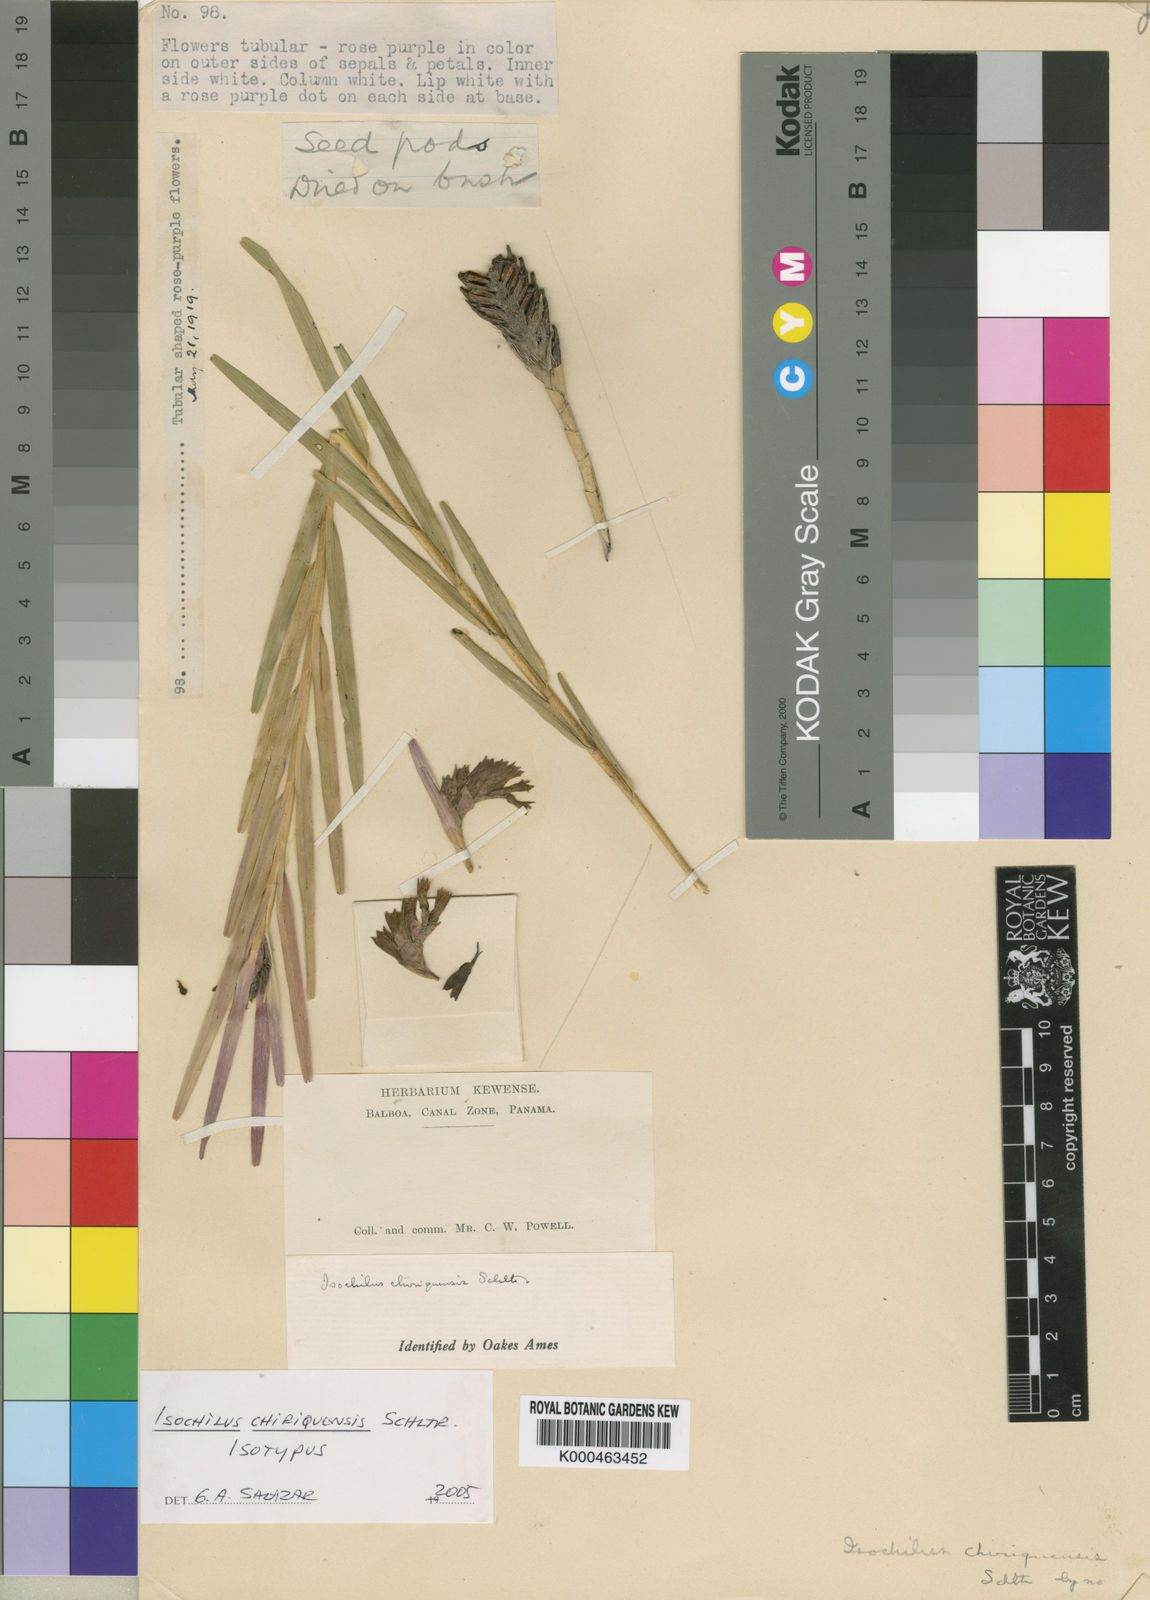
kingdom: Plantae
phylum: Tracheophyta
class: Liliopsida
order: Asparagales
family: Orchidaceae
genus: Isochilus
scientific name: Isochilus chiriquensis
